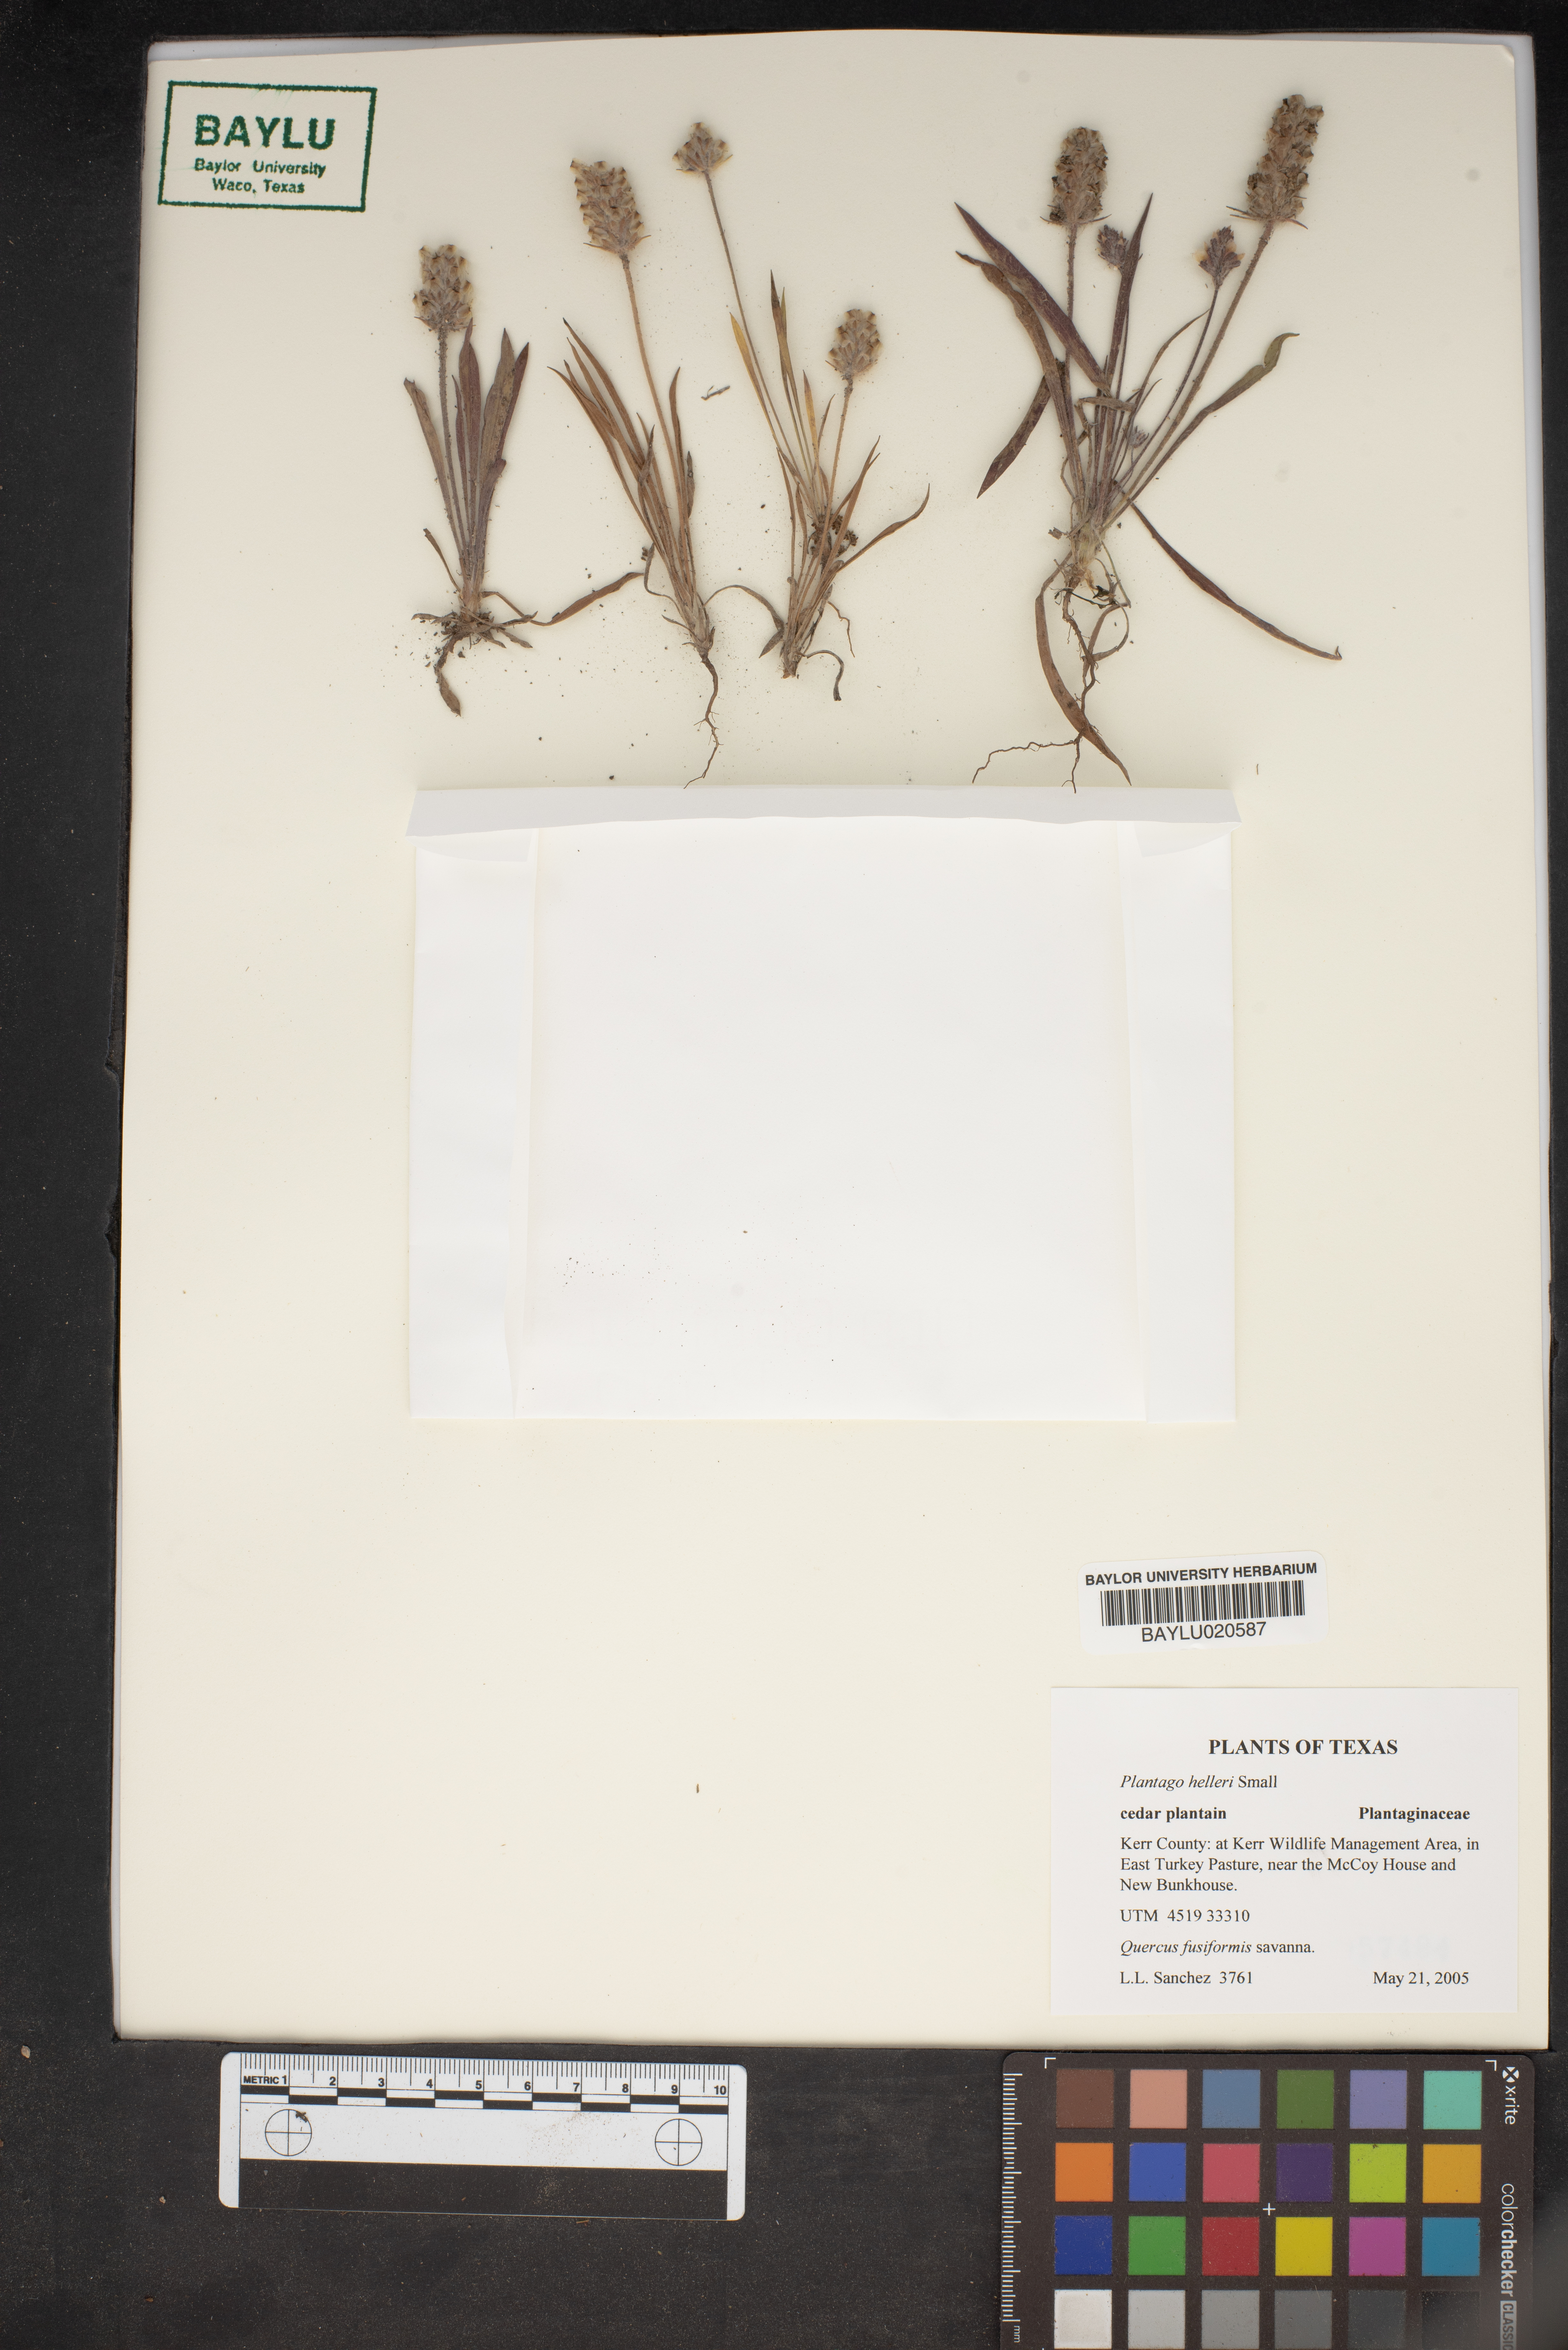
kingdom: Plantae
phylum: Tracheophyta
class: Magnoliopsida
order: Lamiales
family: Plantaginaceae
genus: Plantago
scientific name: Plantago helleri
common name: Heller's plantain
